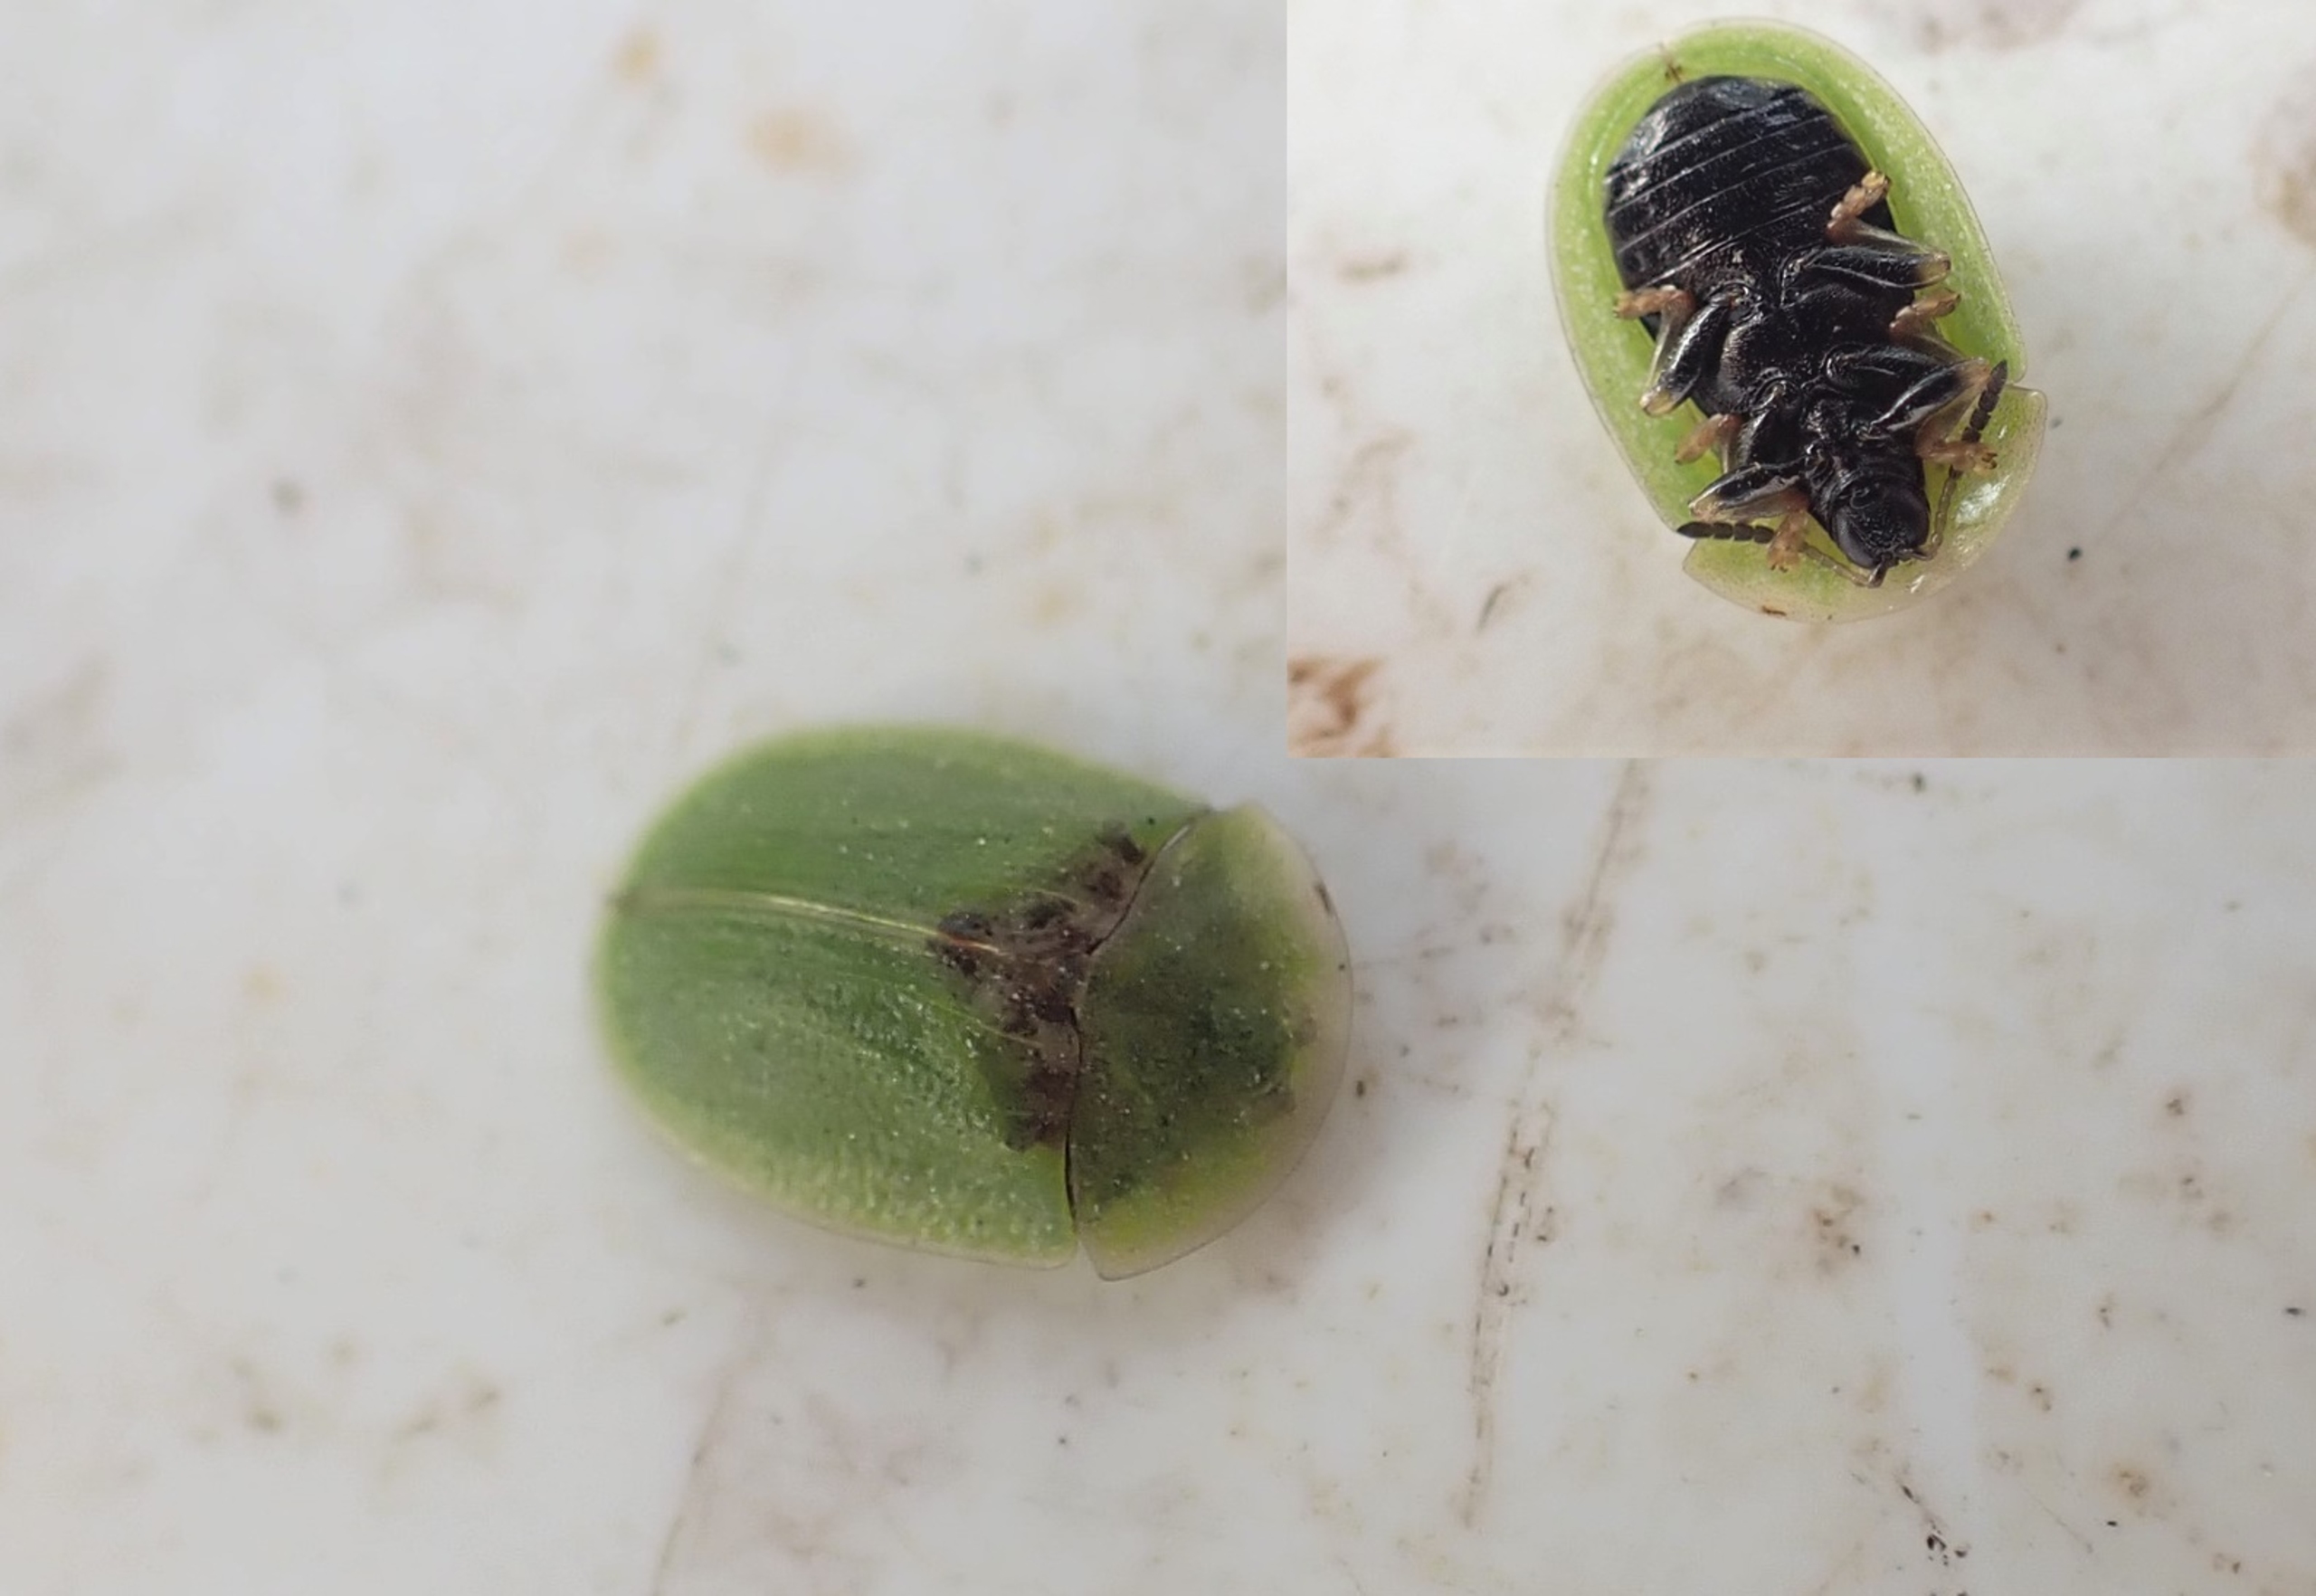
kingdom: Animalia
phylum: Arthropoda
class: Insecta
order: Coleoptera
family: Chrysomelidae
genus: Cassida
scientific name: Cassida rubiginosa
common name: Tidselskjoldbille
